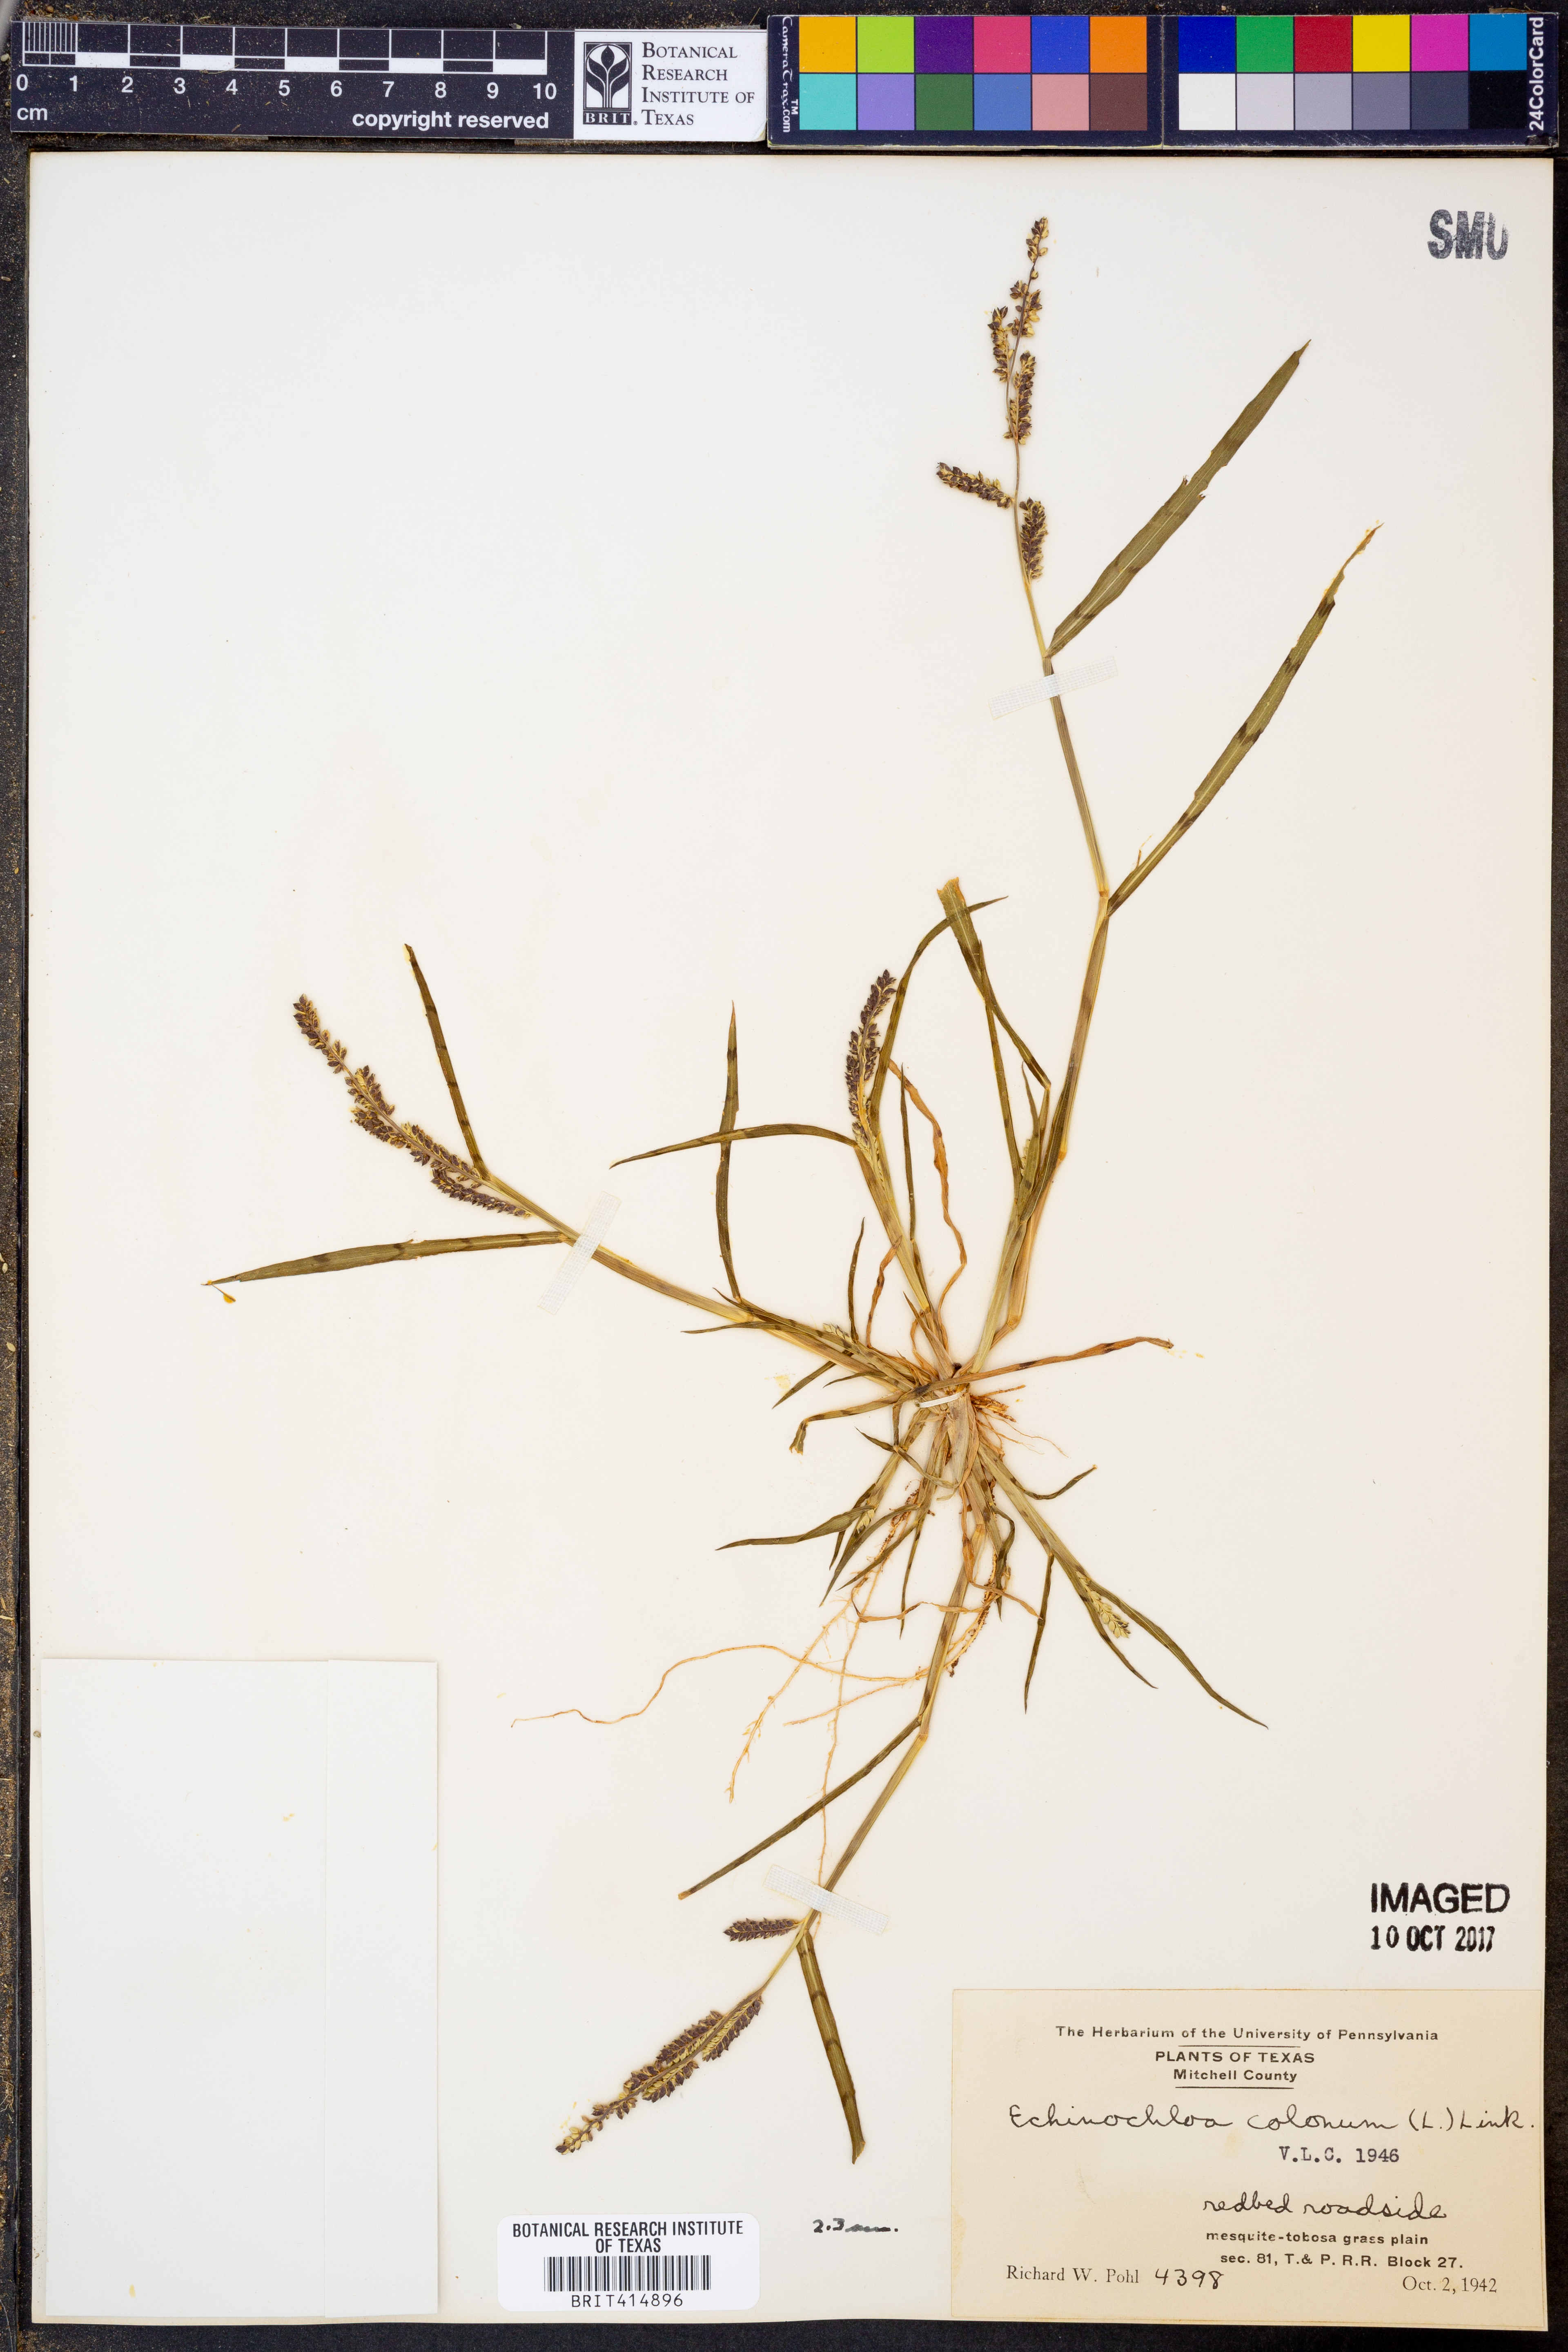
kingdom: Plantae
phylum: Tracheophyta
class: Liliopsida
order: Poales
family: Poaceae
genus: Echinochloa
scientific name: Echinochloa colonum
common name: Jungle rice
